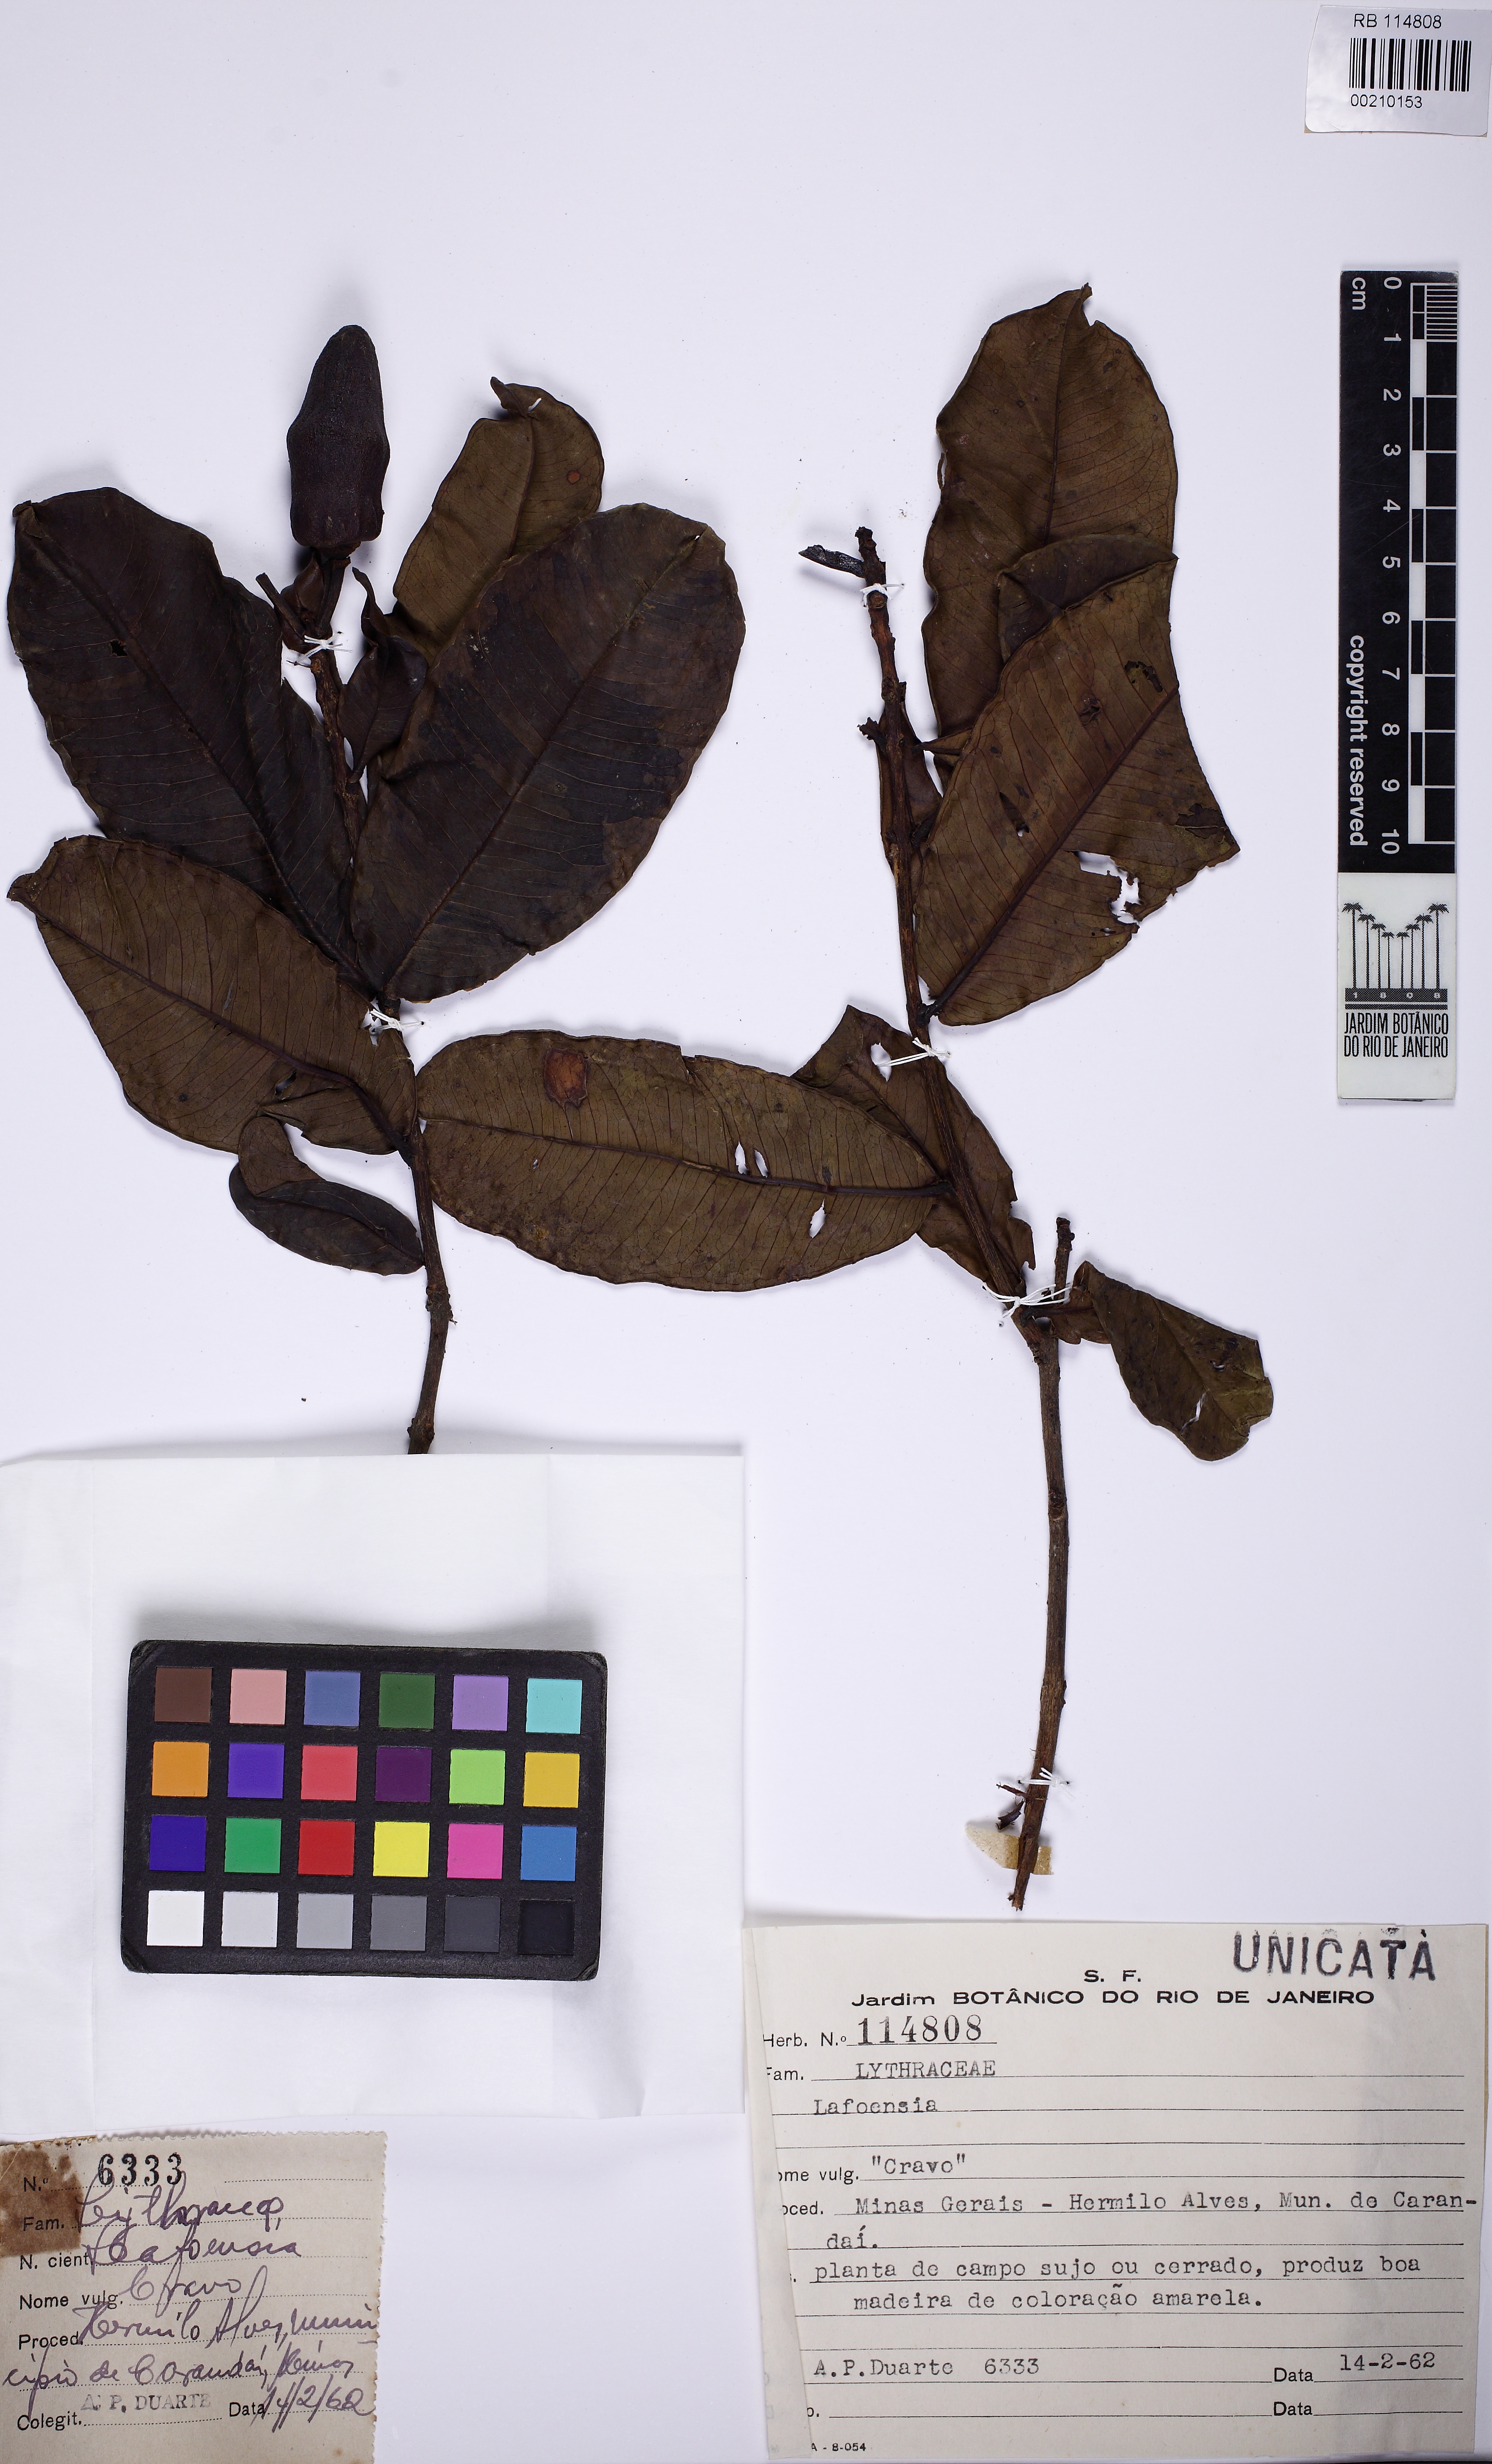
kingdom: Plantae
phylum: Tracheophyta
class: Magnoliopsida
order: Myrtales
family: Lythraceae
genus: Lafoensia
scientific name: Lafoensia
